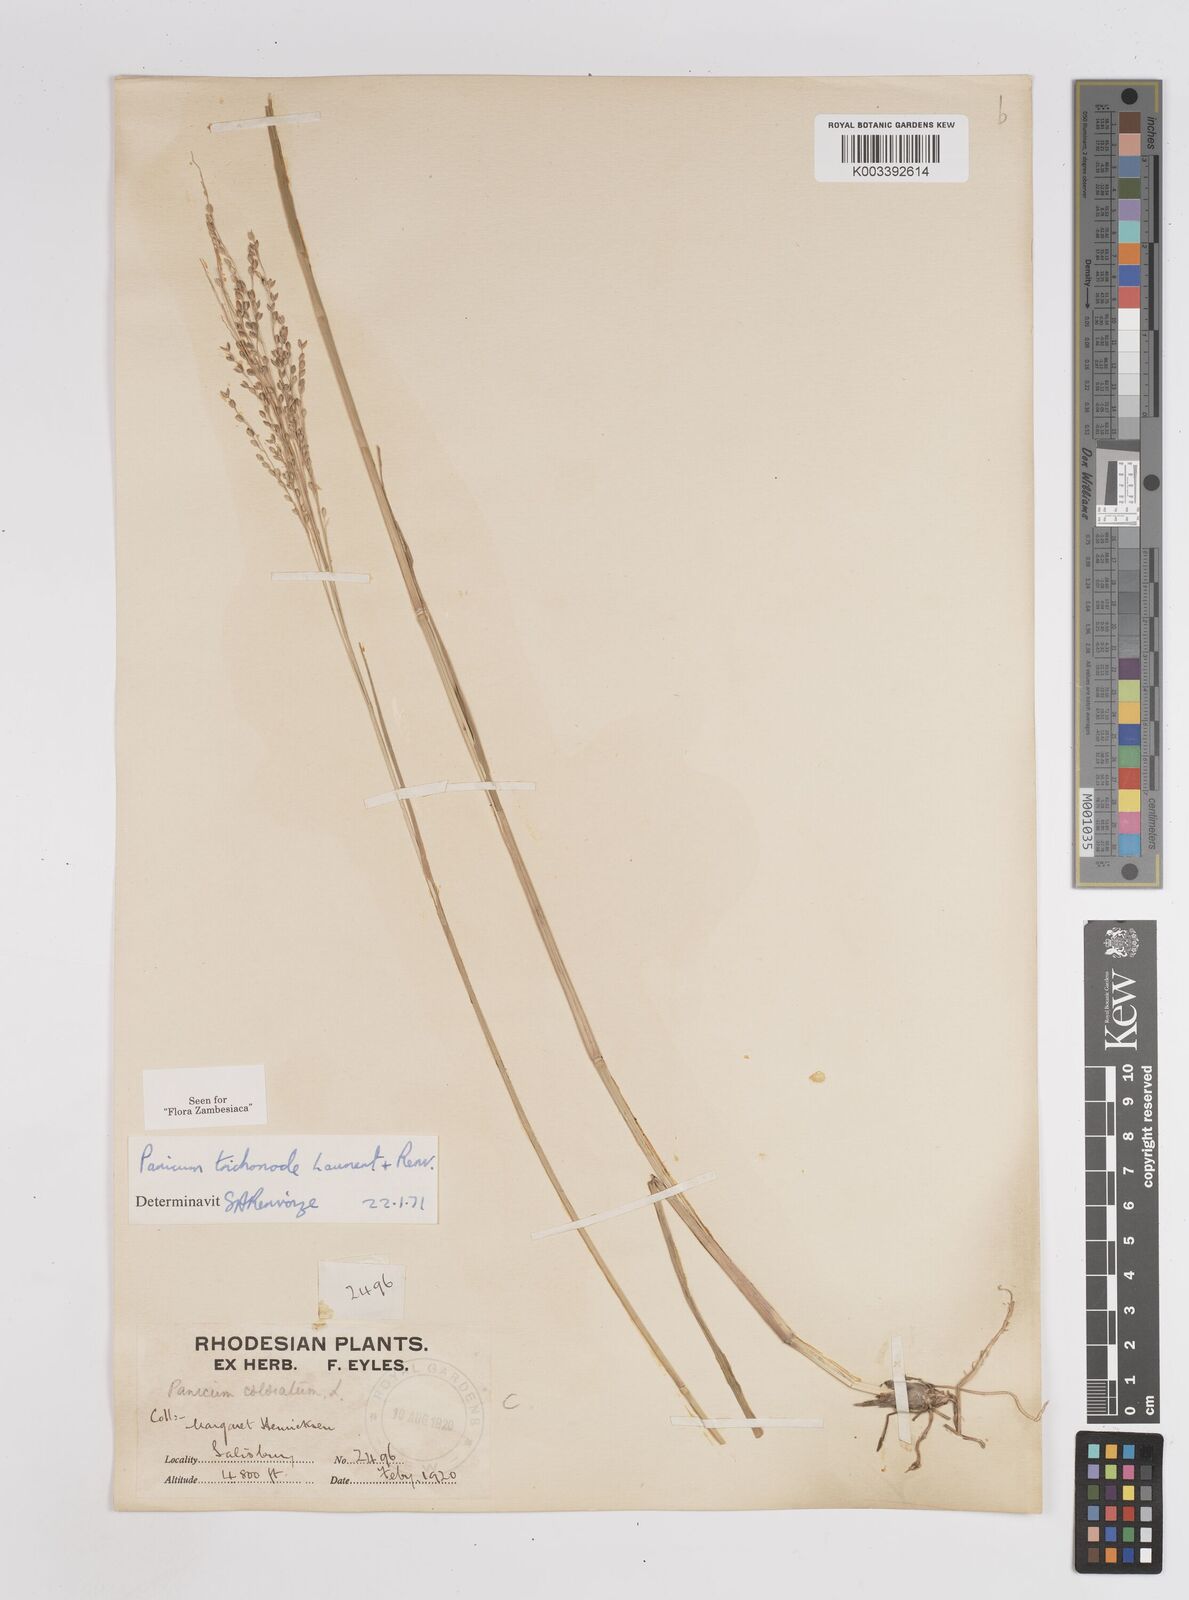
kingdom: Plantae
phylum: Tracheophyta
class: Liliopsida
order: Poales
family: Poaceae
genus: Panicum
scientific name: Panicum trichonode
